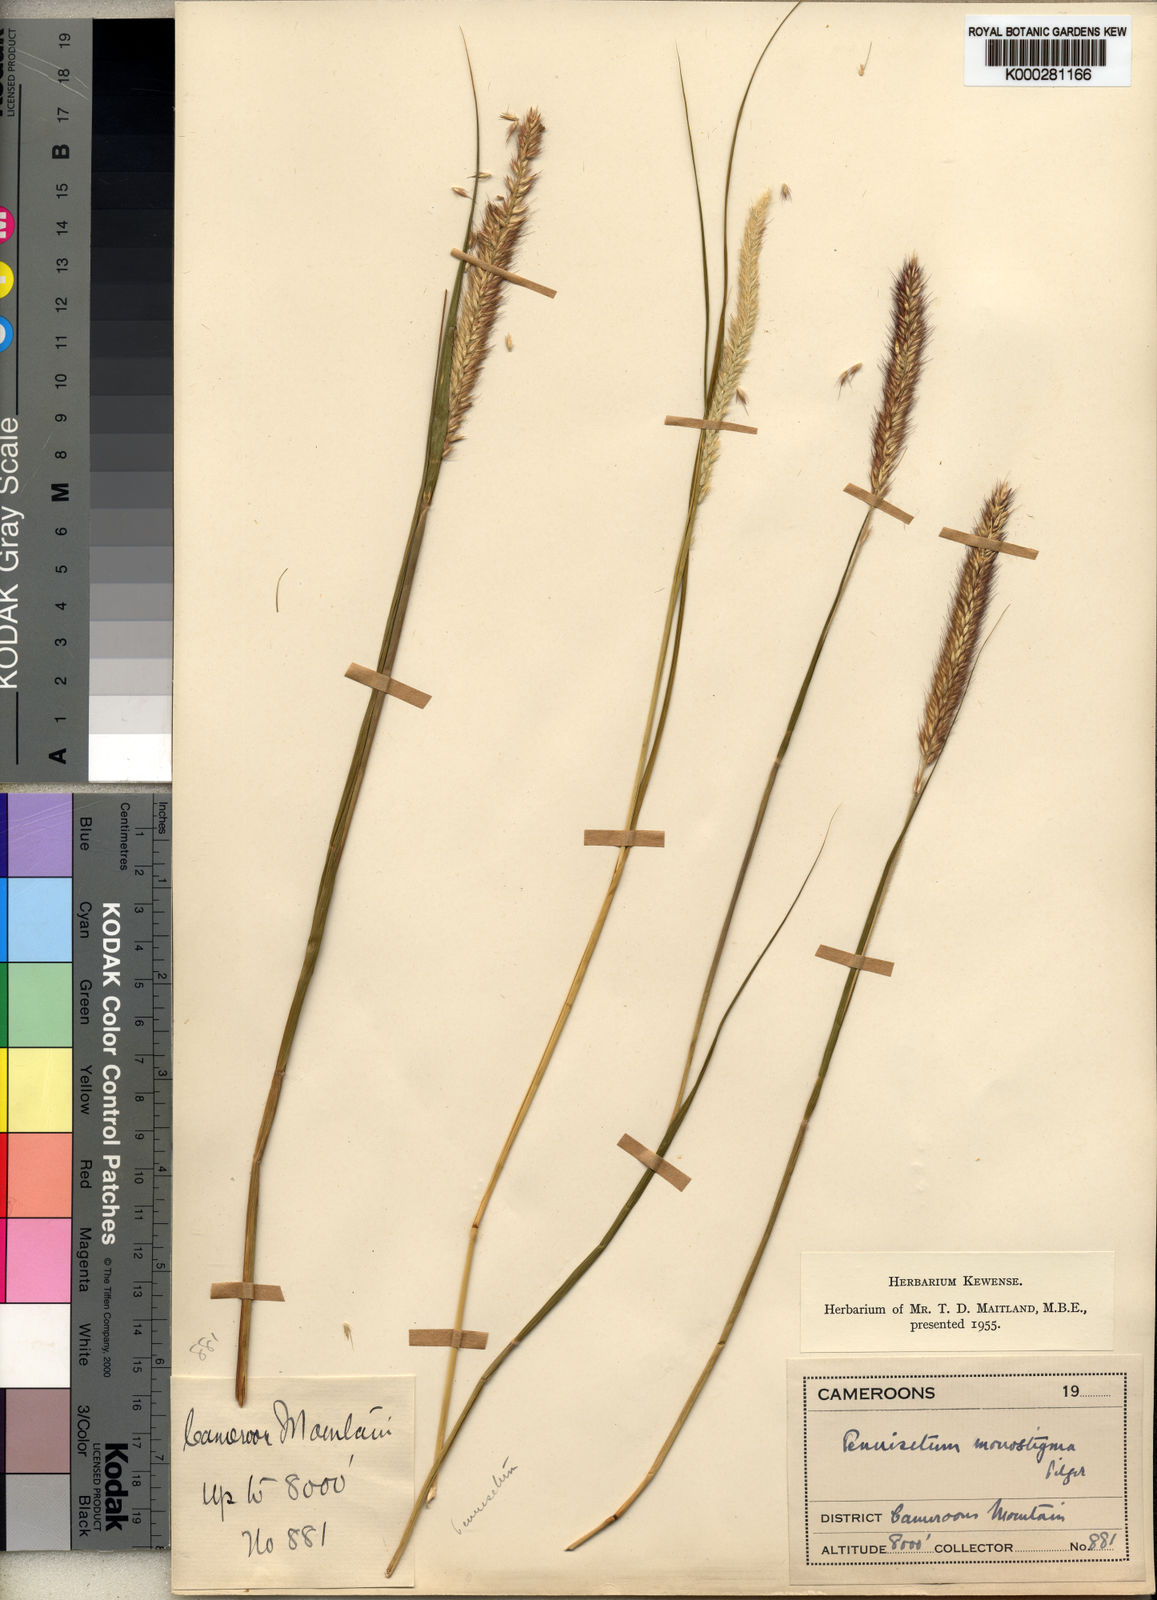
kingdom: Plantae
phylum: Tracheophyta
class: Liliopsida
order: Poales
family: Poaceae
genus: Cenchrus
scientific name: Cenchrus monostigma
